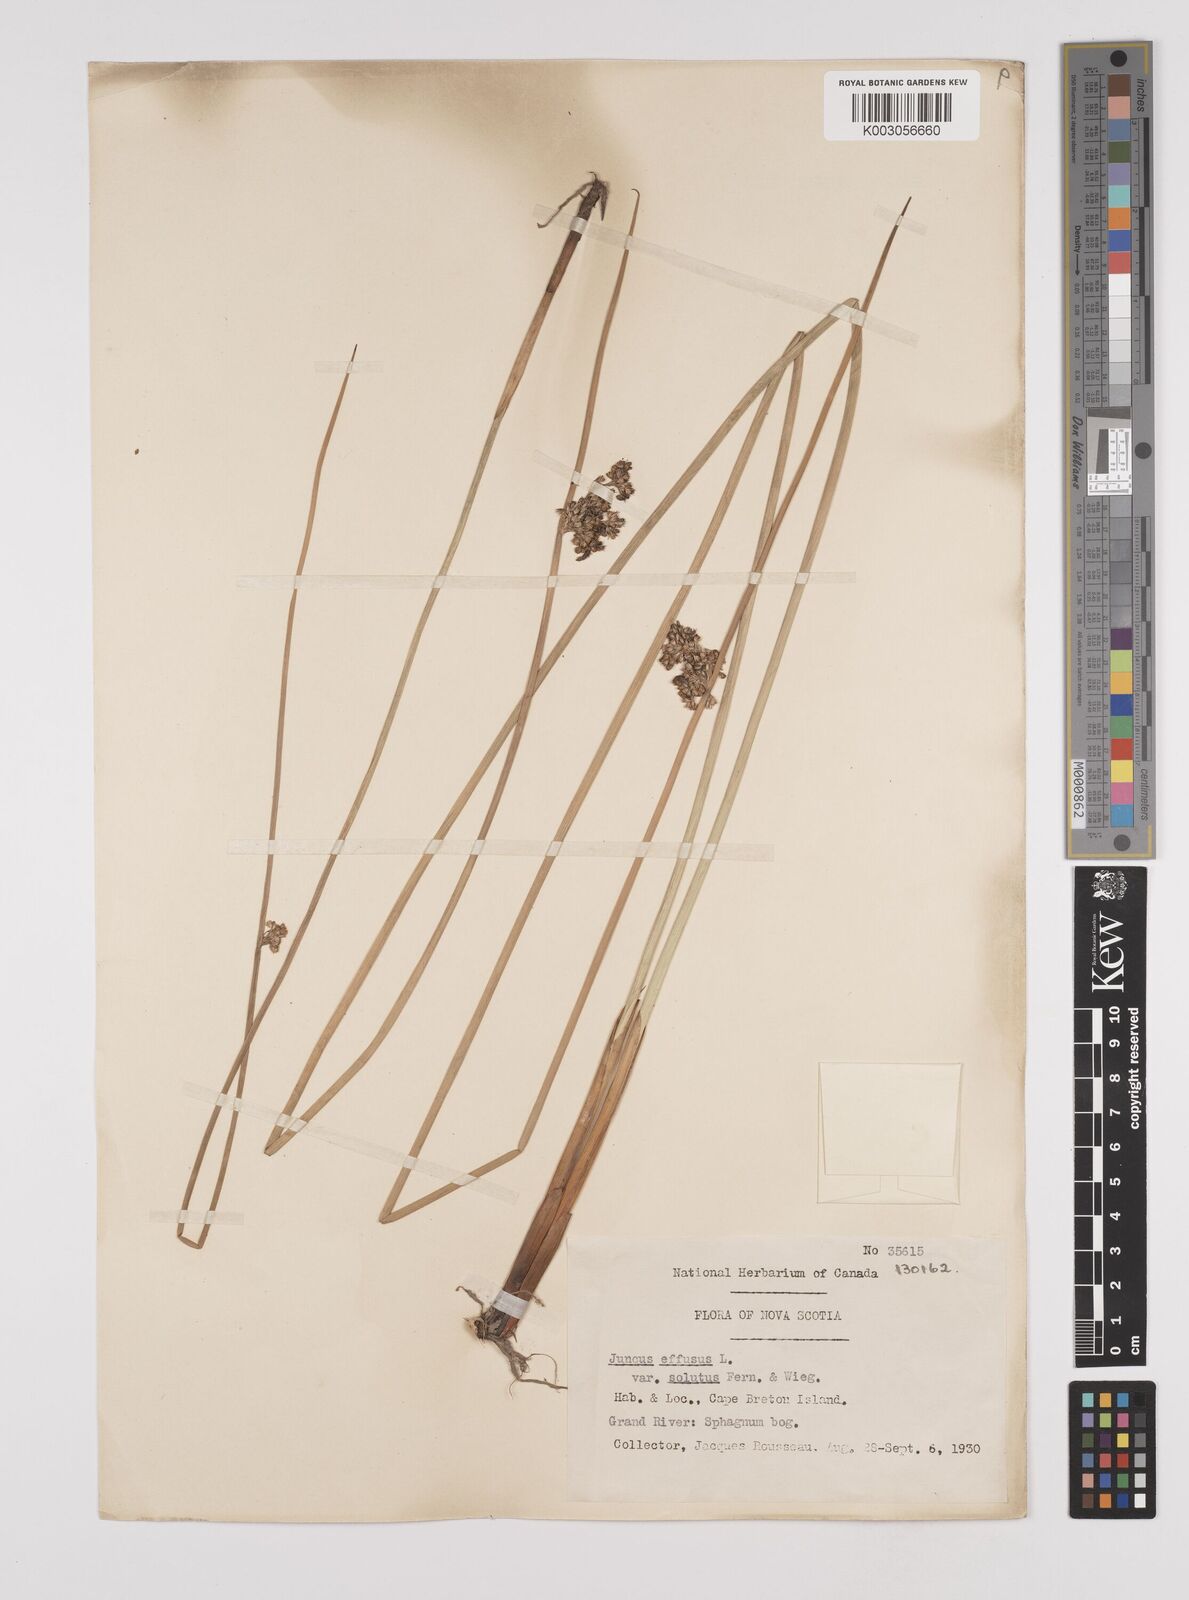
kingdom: Plantae
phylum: Tracheophyta
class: Liliopsida
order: Poales
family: Juncaceae
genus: Juncus
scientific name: Juncus effusus
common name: Soft rush
